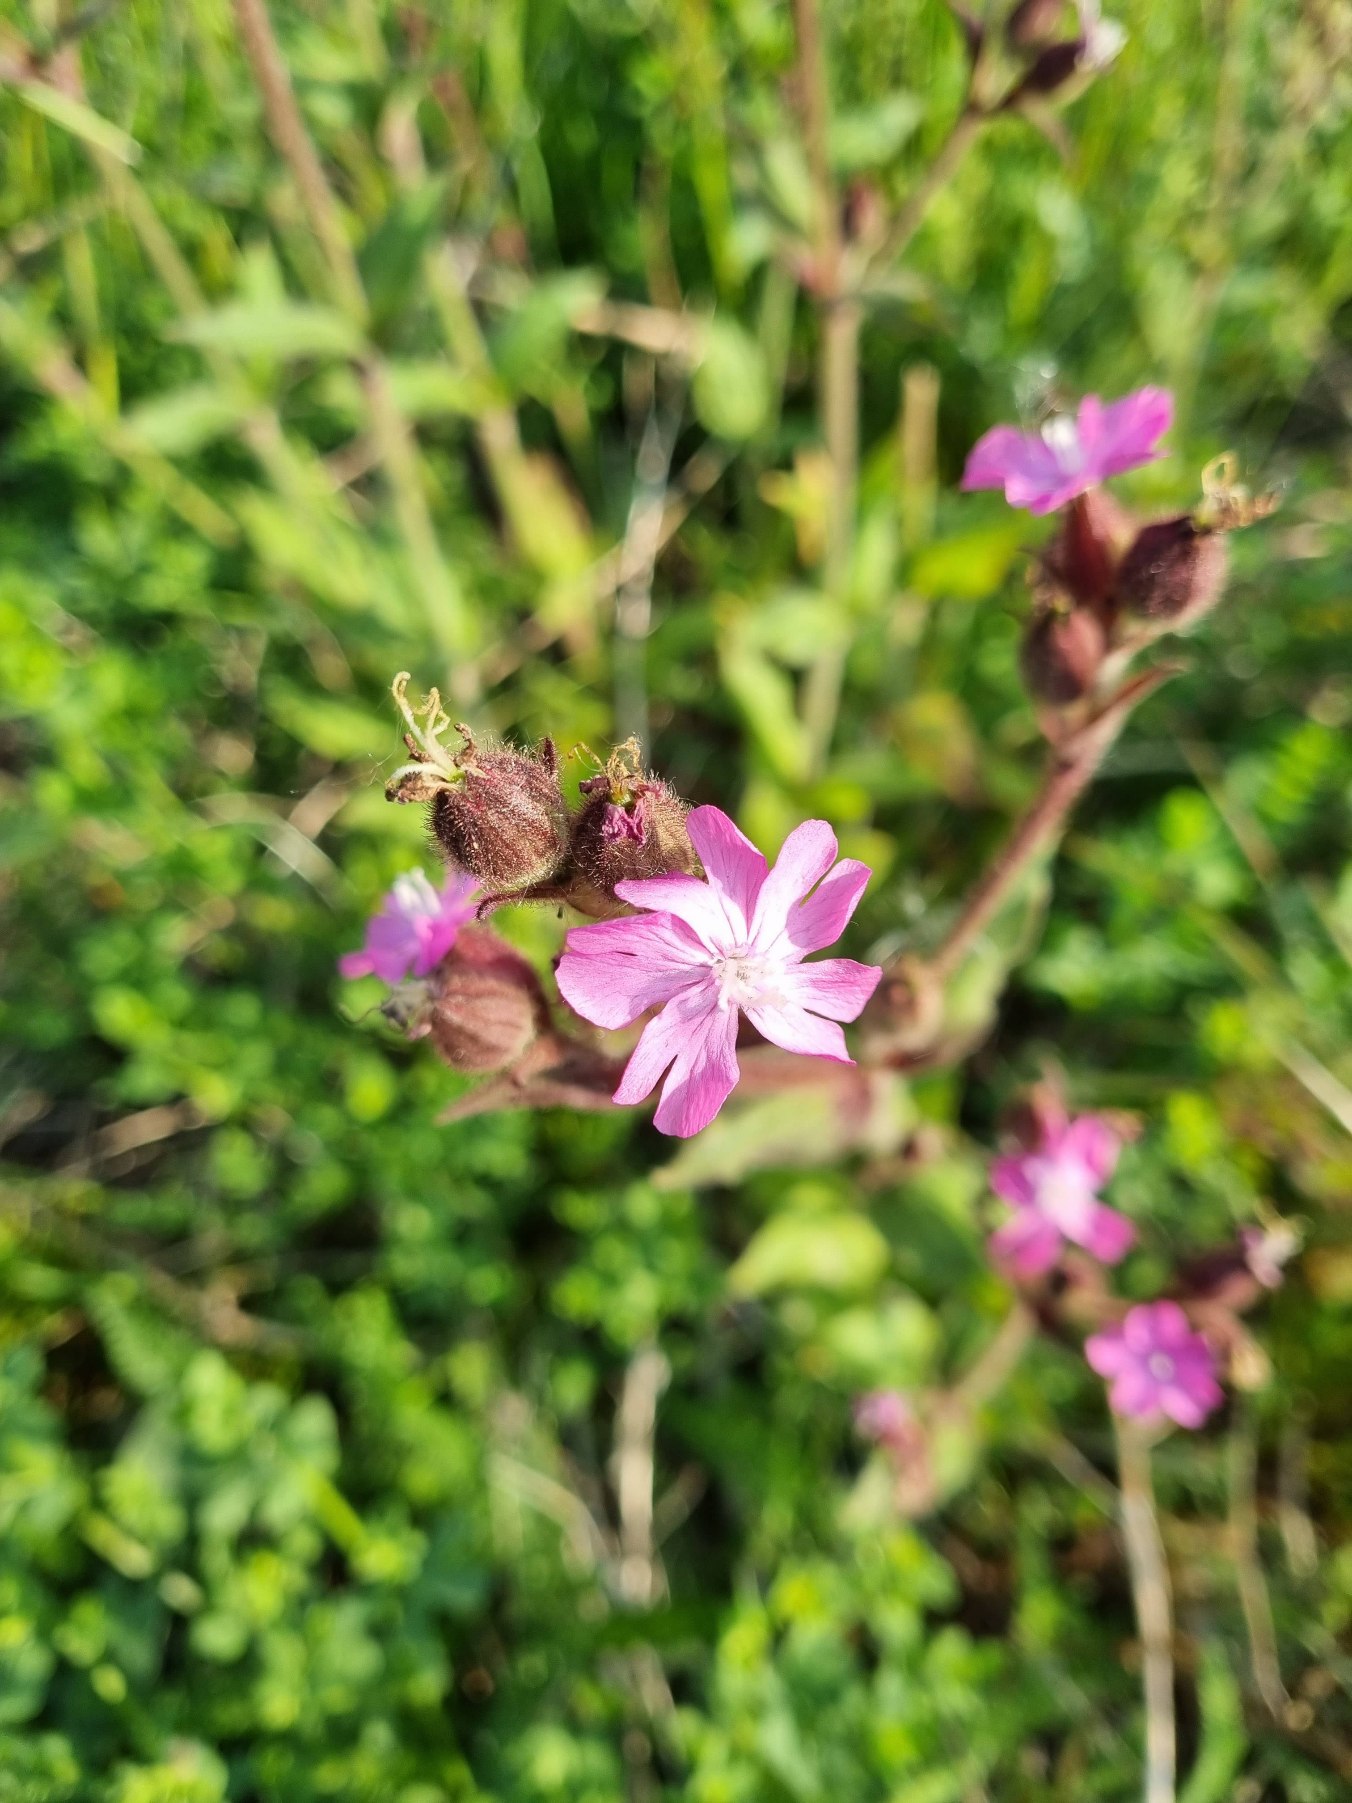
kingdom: Plantae
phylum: Tracheophyta
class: Magnoliopsida
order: Caryophyllales
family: Caryophyllaceae
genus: Silene
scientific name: Silene dioica
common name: Dagpragtstjerne
